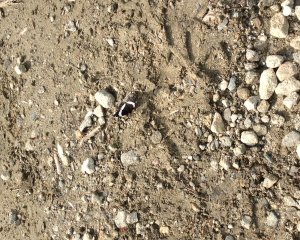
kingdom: Animalia
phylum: Arthropoda
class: Insecta
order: Lepidoptera
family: Nymphalidae
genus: Limenitis
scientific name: Limenitis arthemis
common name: Red-spotted Admiral
